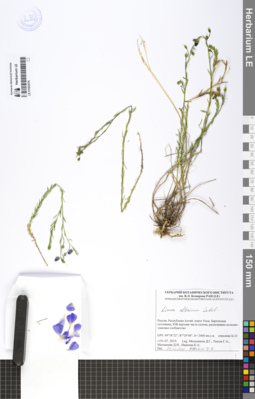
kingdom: Plantae
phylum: Tracheophyta
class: Magnoliopsida
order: Malpighiales
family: Linaceae
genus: Linum
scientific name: Linum altaicum
